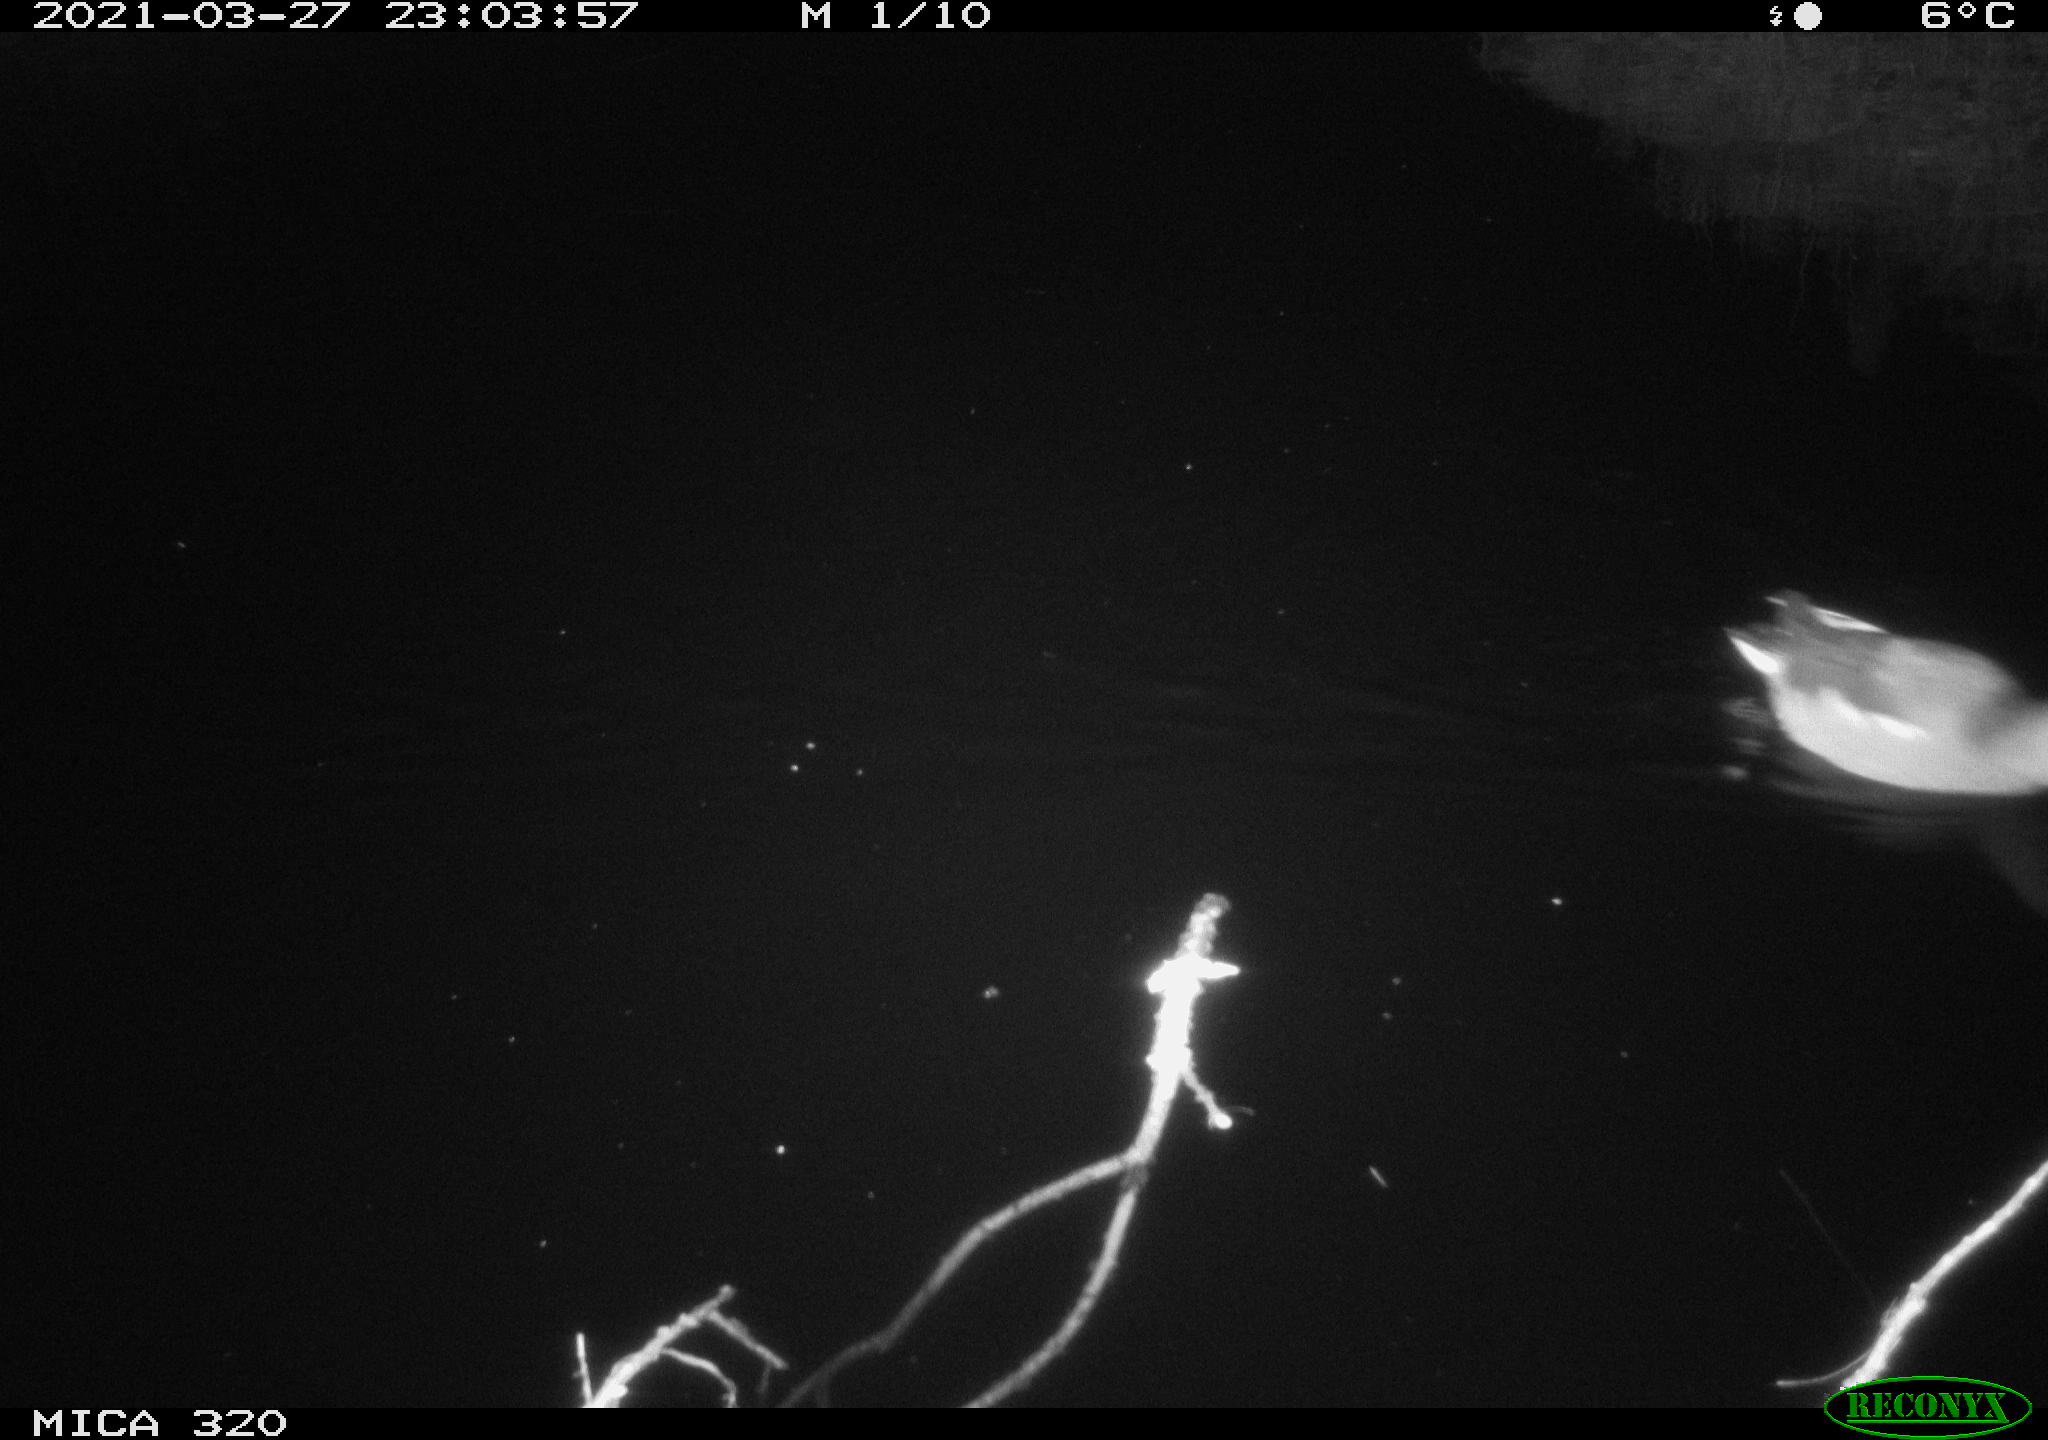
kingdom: Animalia
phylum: Chordata
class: Aves
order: Gruiformes
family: Rallidae
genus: Gallinula
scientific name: Gallinula chloropus
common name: Common moorhen
